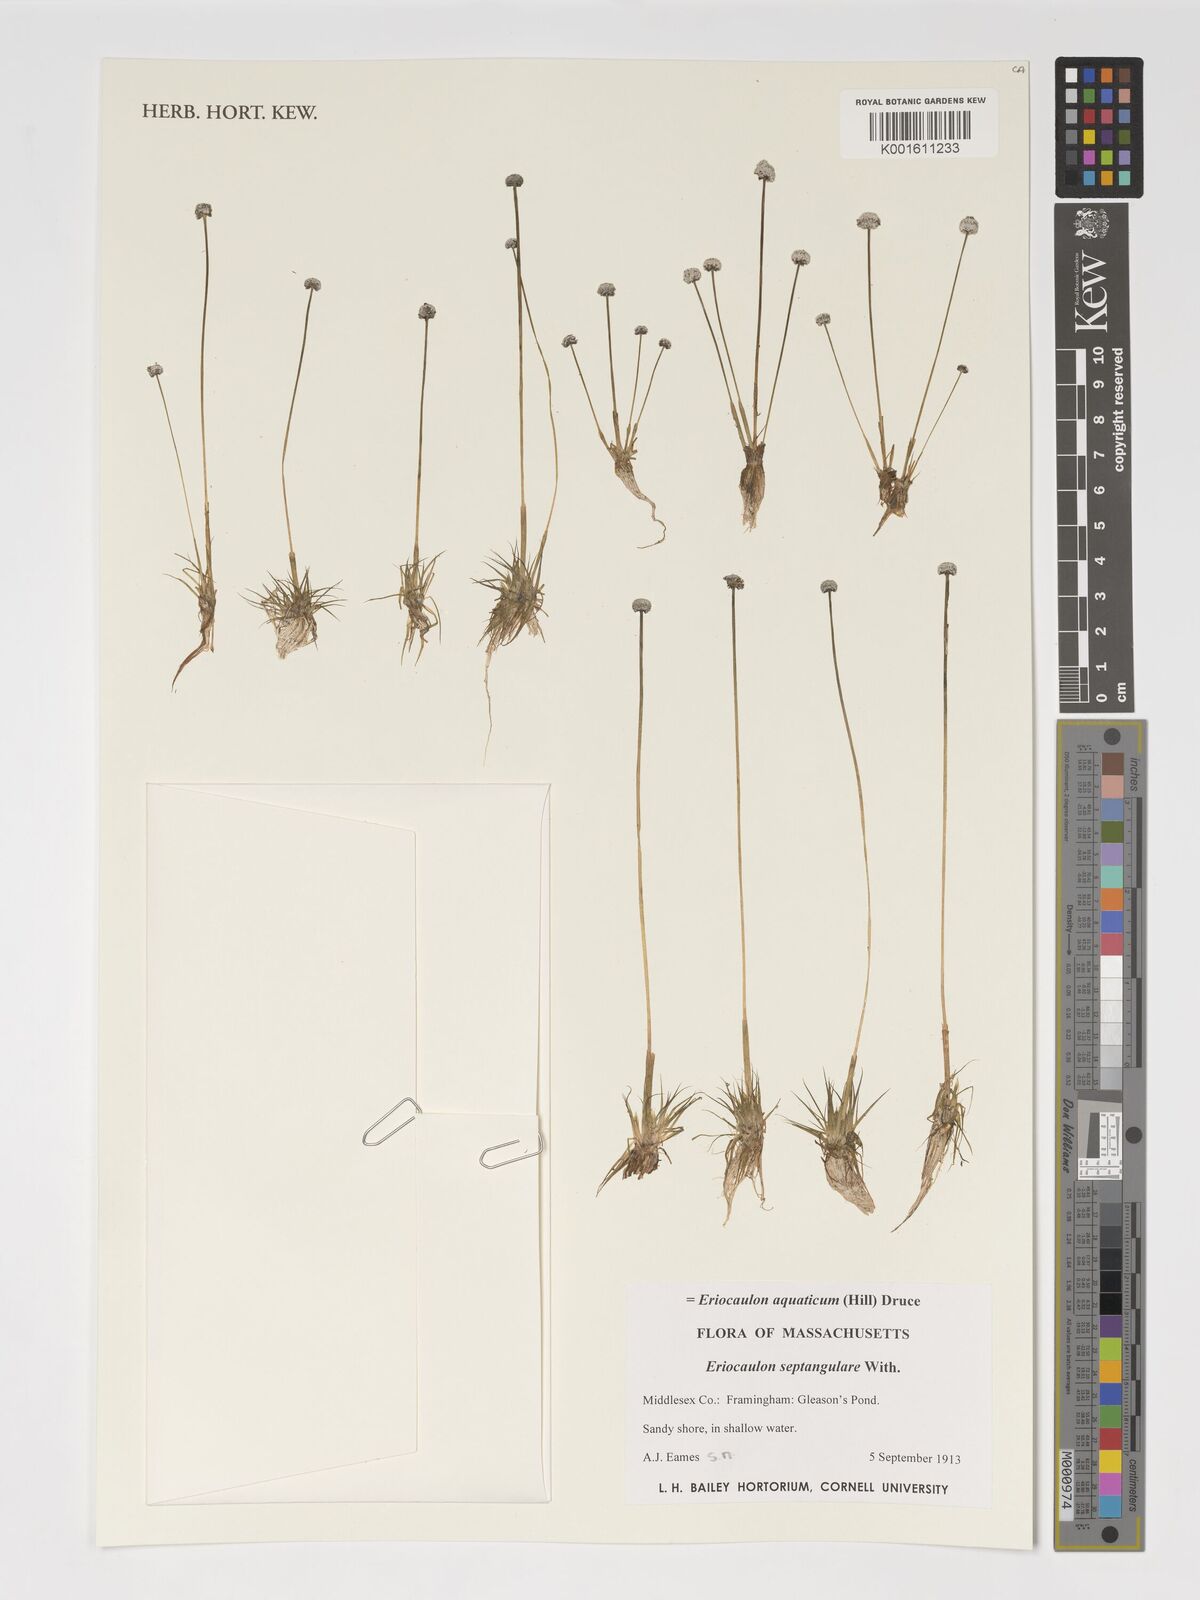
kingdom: Plantae
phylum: Tracheophyta
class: Liliopsida
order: Poales
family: Eriocaulaceae
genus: Eriocaulon
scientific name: Eriocaulon aquaticum
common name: Pipewort
